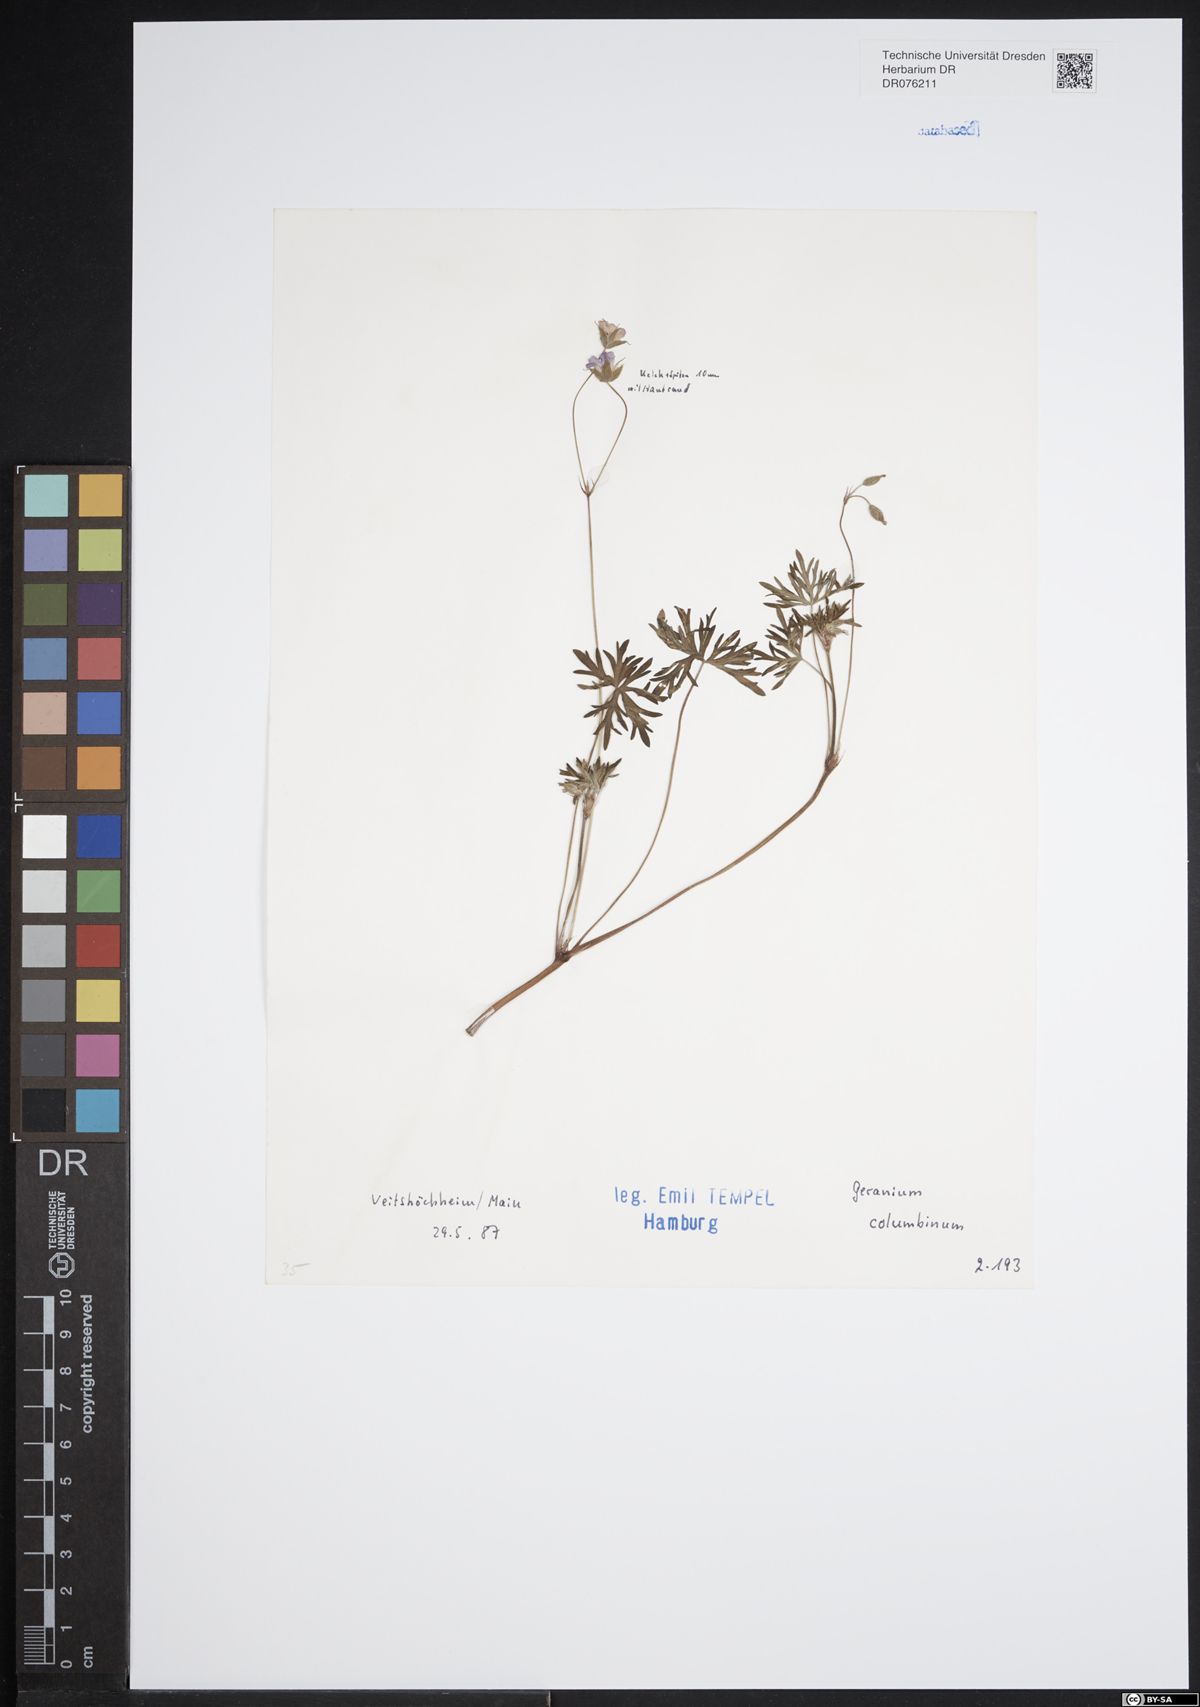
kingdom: Plantae
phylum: Tracheophyta
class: Magnoliopsida
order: Geraniales
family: Geraniaceae
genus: Geranium
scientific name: Geranium columbinum
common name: Long-stalked crane's-bill
